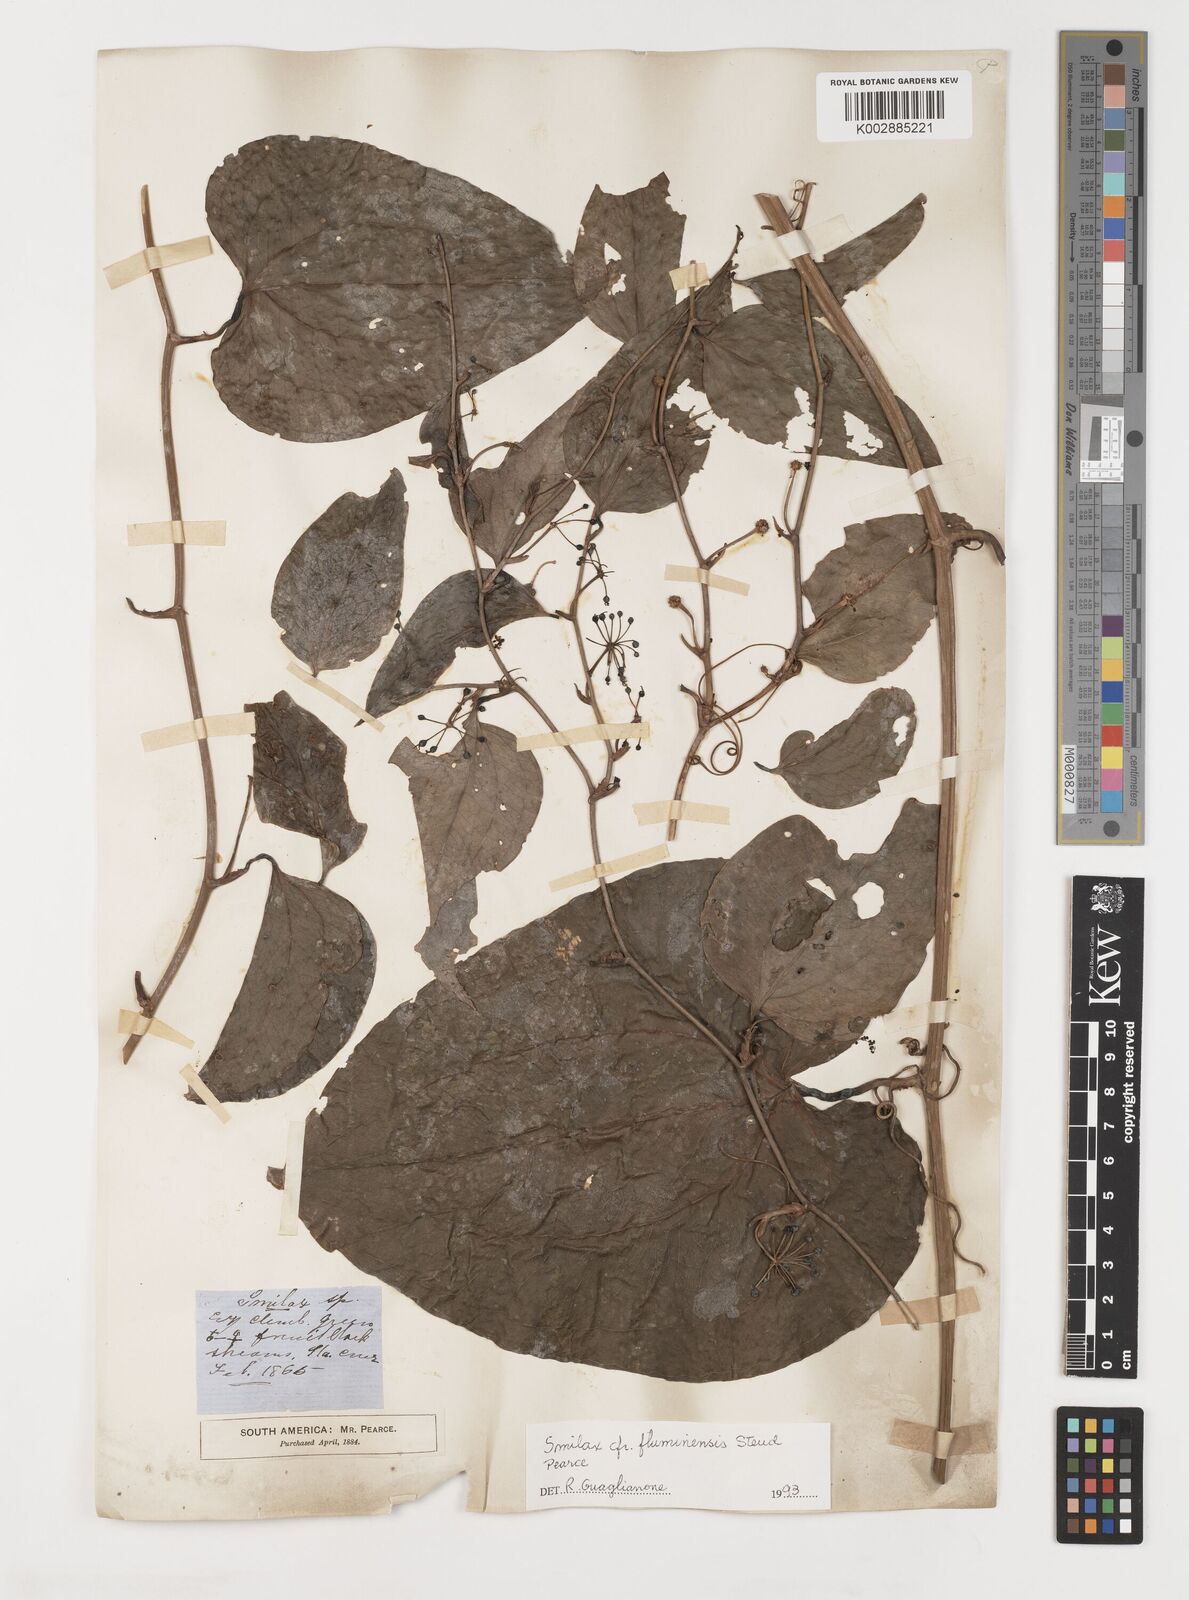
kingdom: Plantae
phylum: Tracheophyta
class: Liliopsida
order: Liliales
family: Smilacaceae
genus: Smilax
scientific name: Smilax fluminensis
